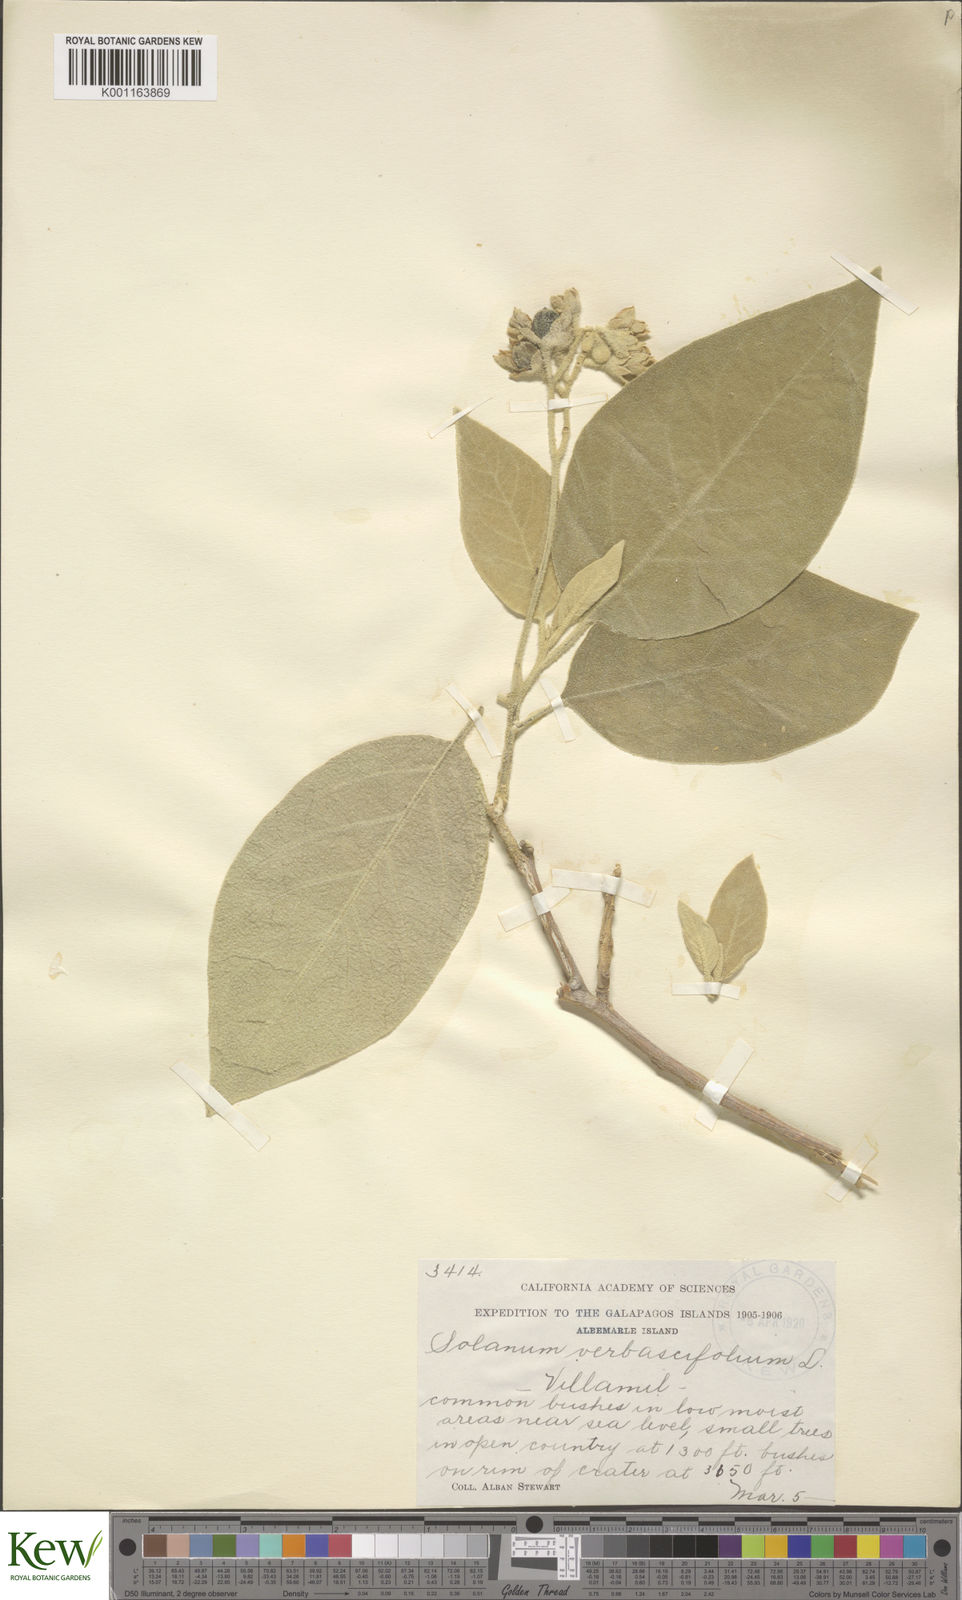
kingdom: Plantae
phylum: Tracheophyta
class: Magnoliopsida
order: Solanales
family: Solanaceae
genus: Solanum
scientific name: Solanum erianthum
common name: Tobacco-tree
